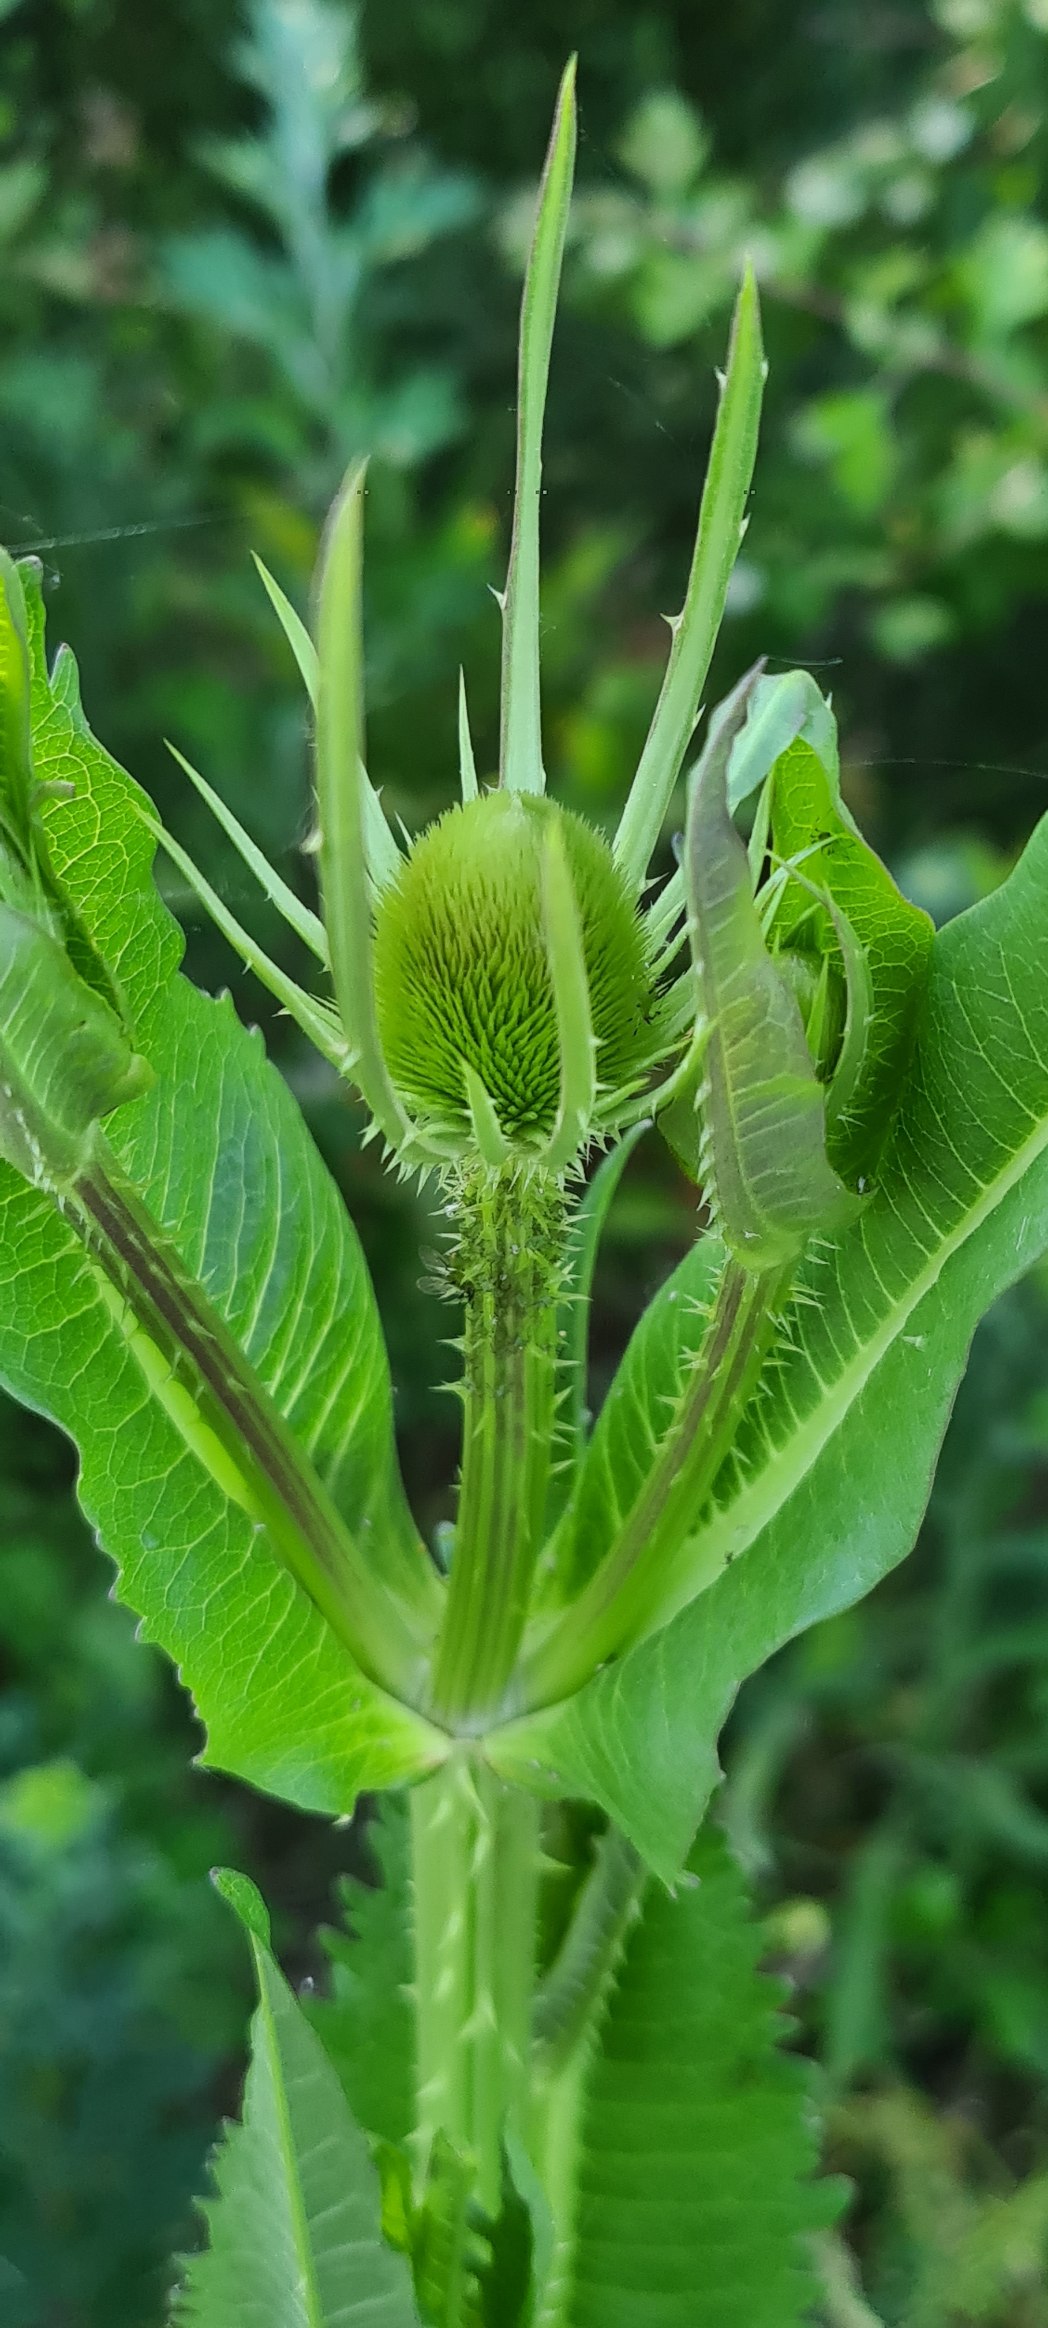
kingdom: Plantae
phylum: Tracheophyta
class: Magnoliopsida
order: Dipsacales
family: Caprifoliaceae
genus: Dipsacus
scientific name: Dipsacus fullonum
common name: Gærde-kartebolle
